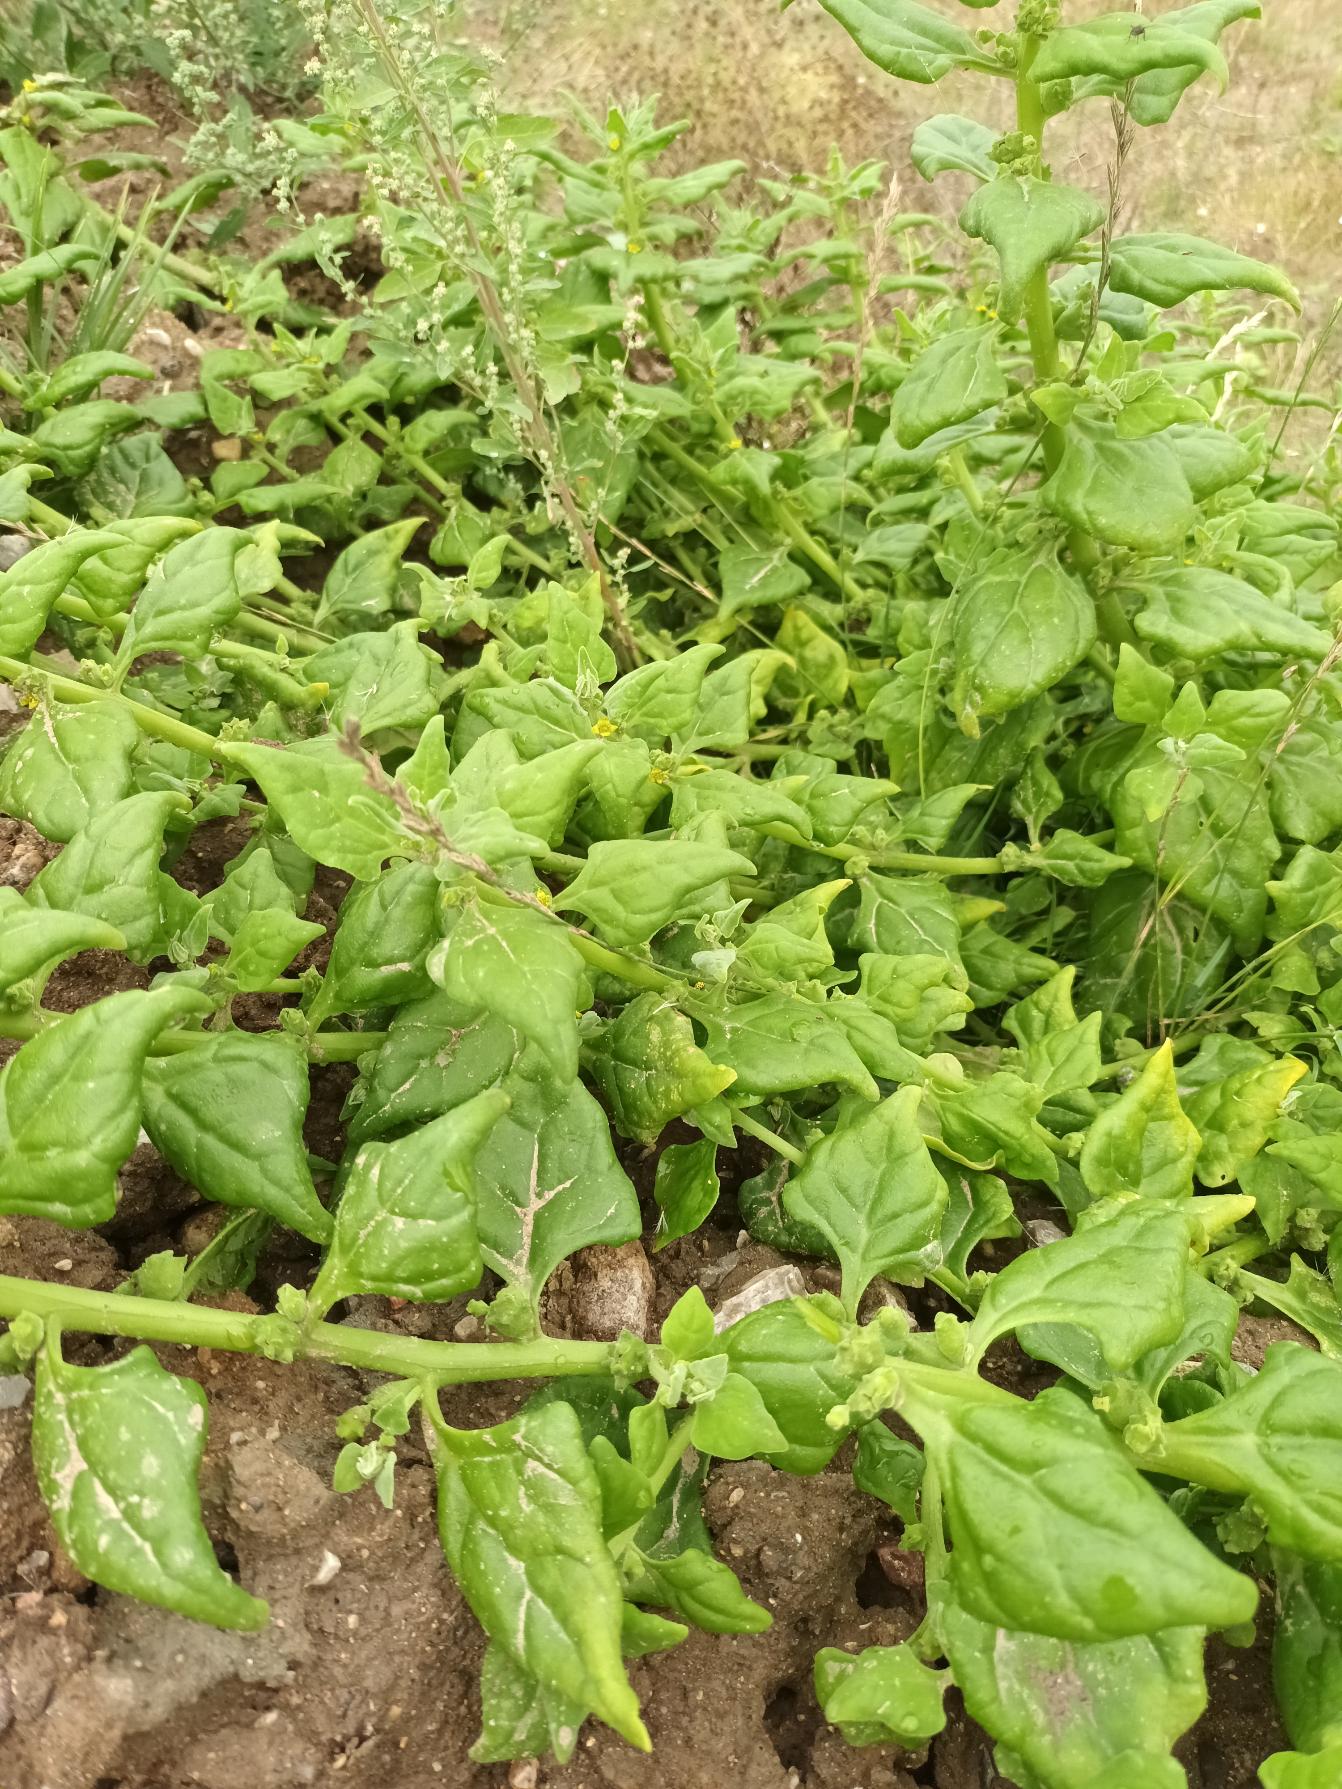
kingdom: Plantae
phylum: Tracheophyta
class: Magnoliopsida
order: Caryophyllales
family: Aizoaceae
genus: Tetragonia
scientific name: Tetragonia tetragonoides
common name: New zealandsk spinat
